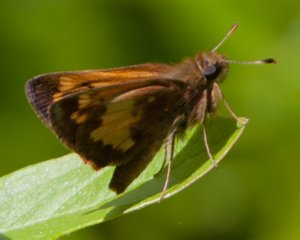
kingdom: Animalia
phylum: Arthropoda
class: Insecta
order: Lepidoptera
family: Hesperiidae
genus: Lon
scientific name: Lon hobomok
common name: Hobomok Skipper
